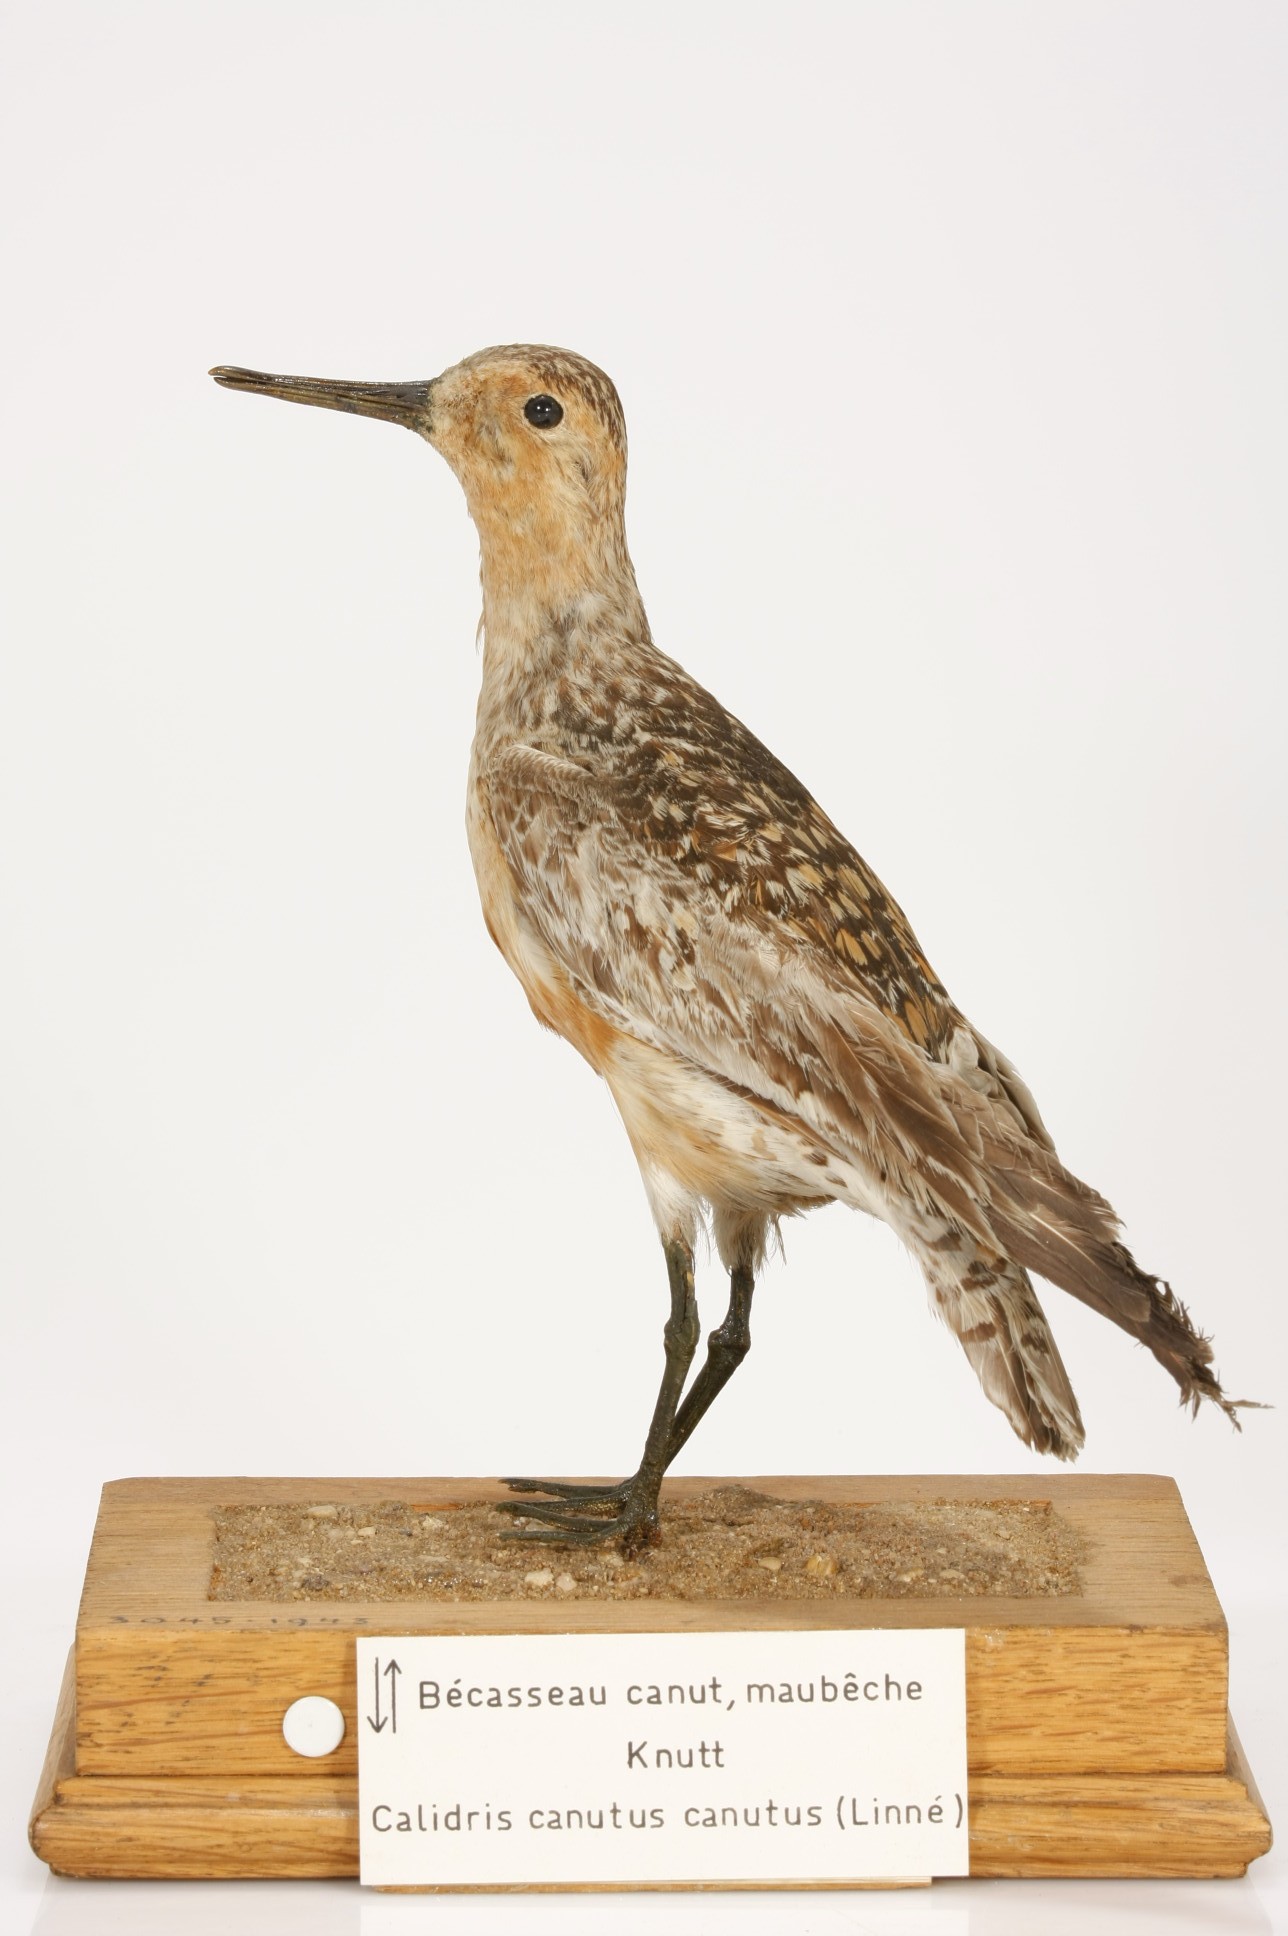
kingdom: Animalia
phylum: Chordata
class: Aves
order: Charadriiformes
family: Scolopacidae
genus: Calidris
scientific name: Calidris canutus
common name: Red knot
